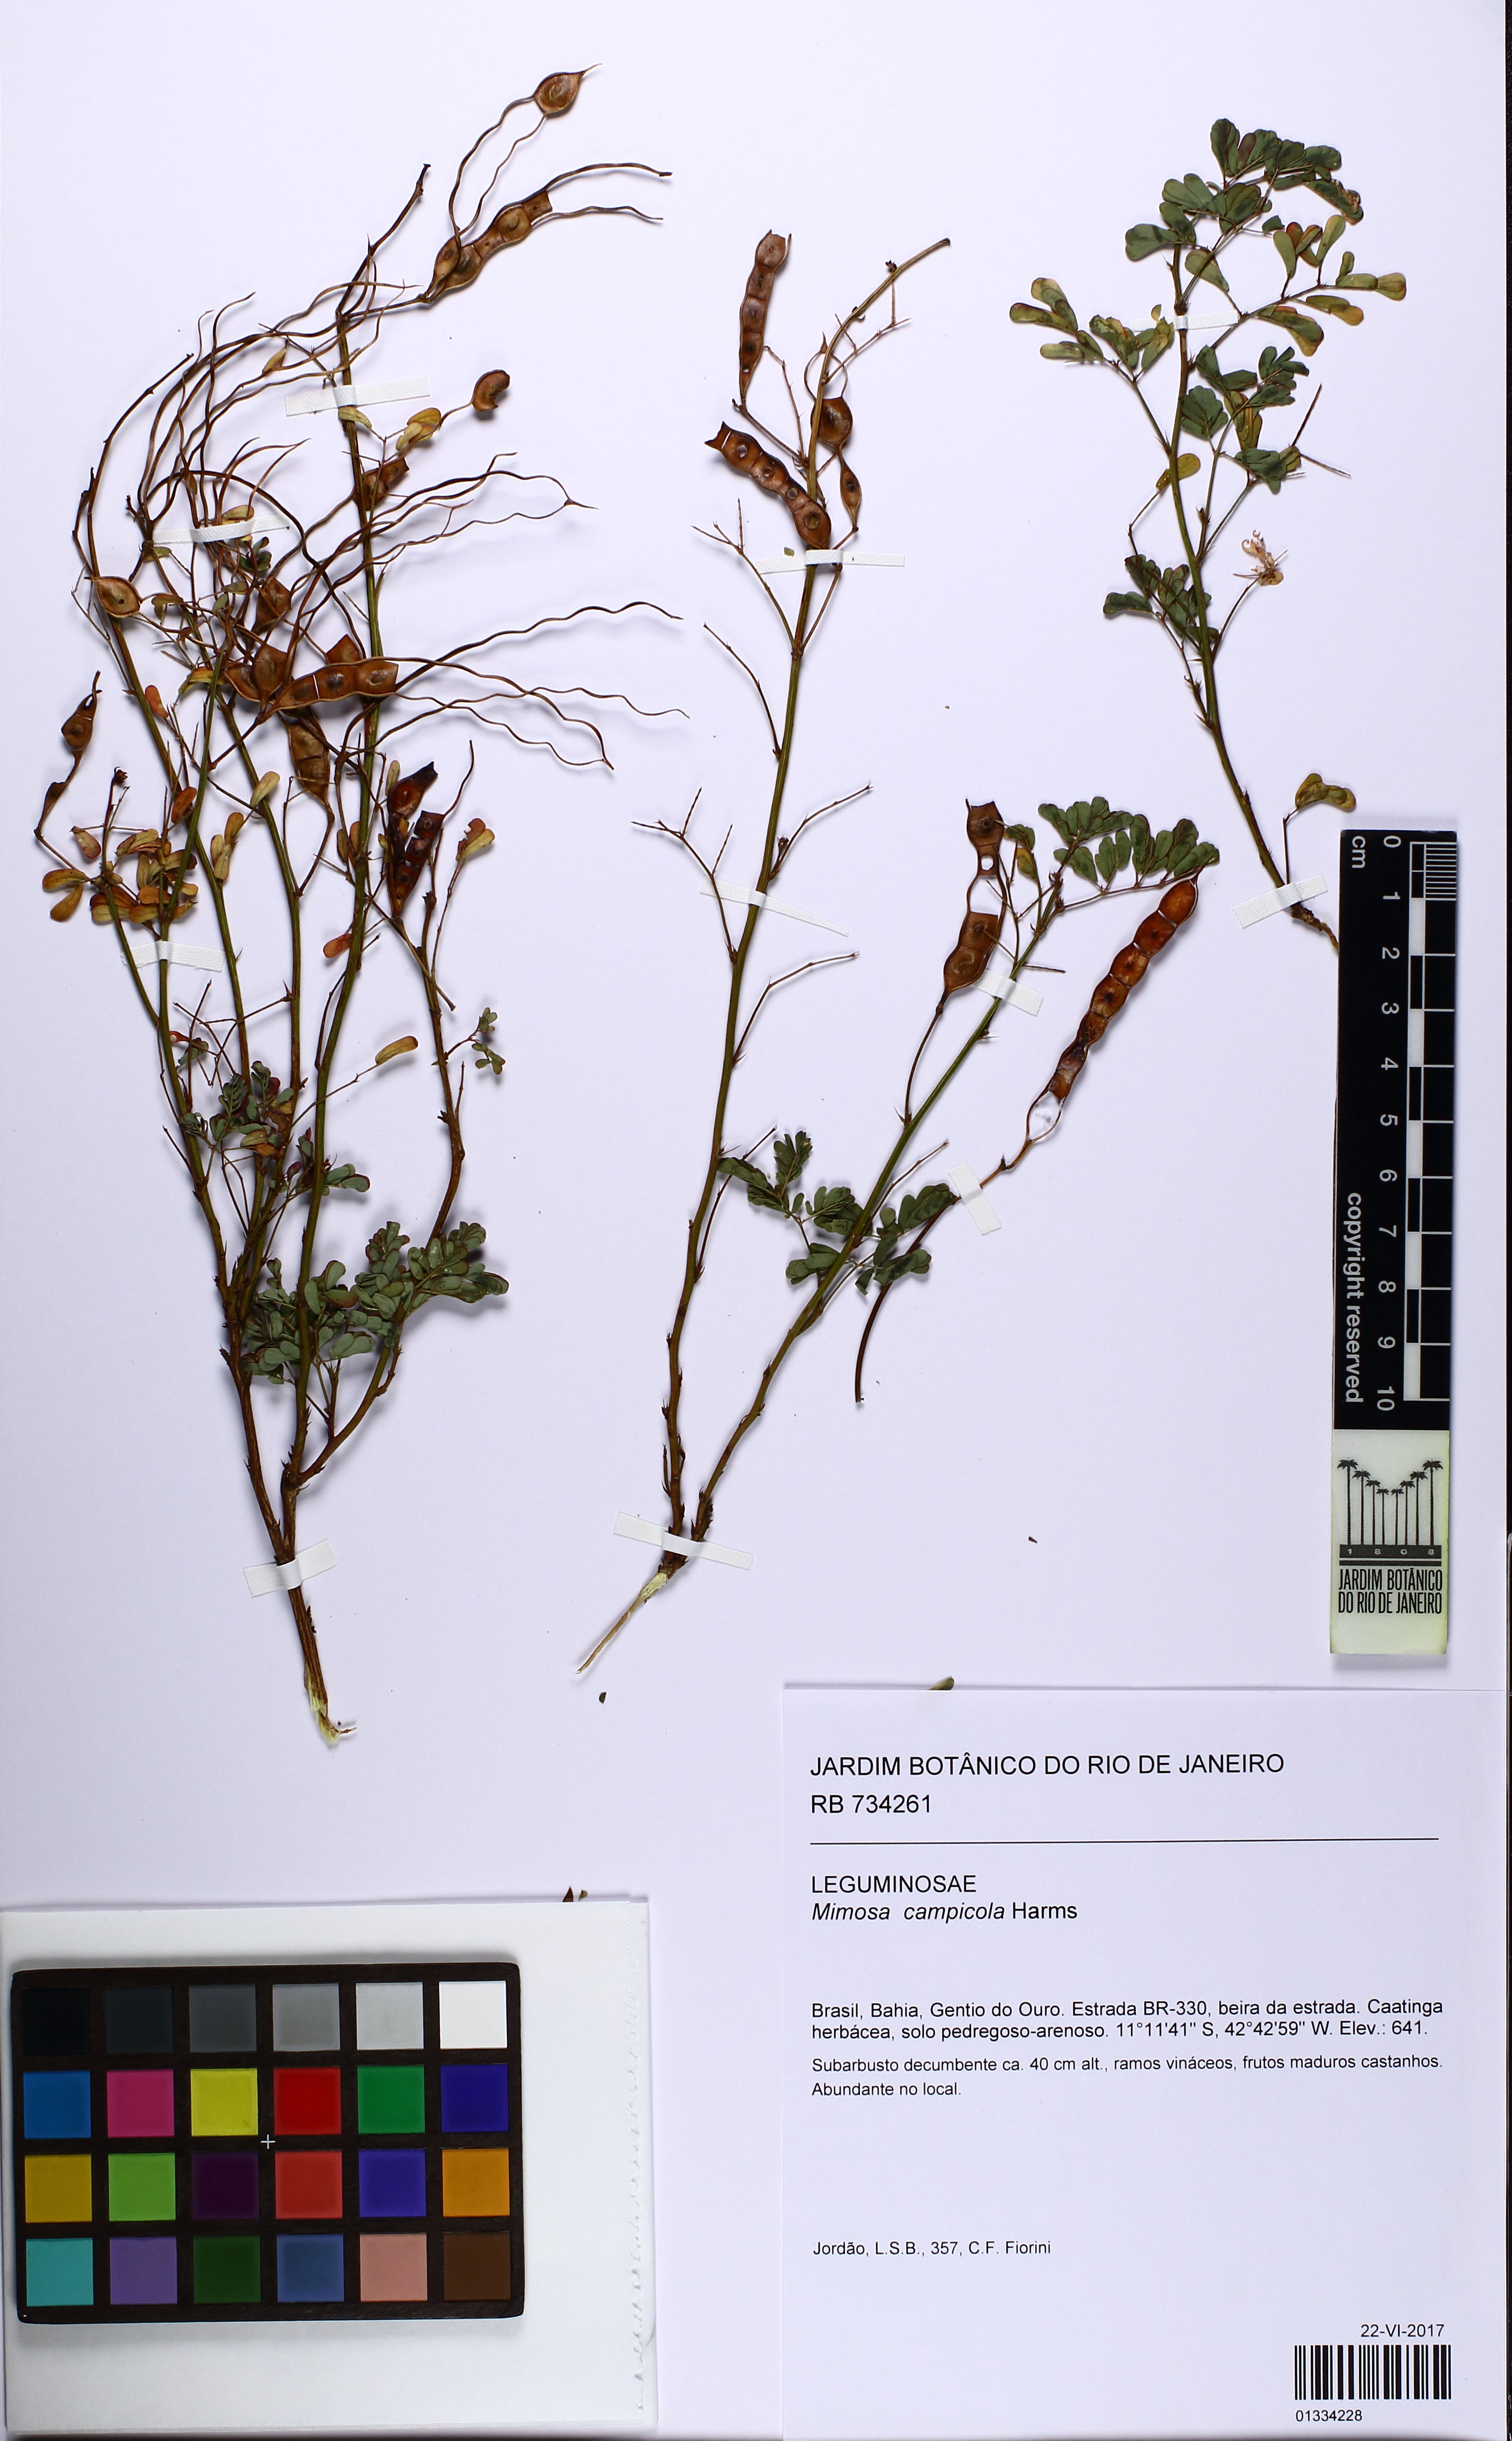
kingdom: Plantae
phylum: Tracheophyta
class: Magnoliopsida
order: Fabales
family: Fabaceae
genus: Mimosa
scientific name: Mimosa campicola
